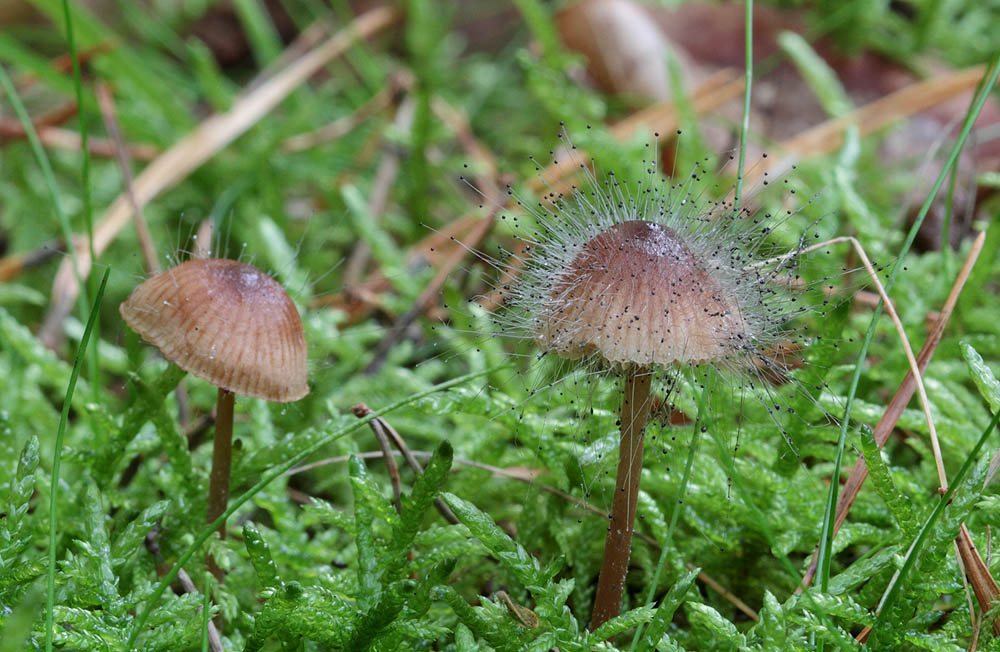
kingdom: Fungi
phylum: Mucoromycota
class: Mucoromycetes
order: Mucorales
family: Phycomycetaceae
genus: Spinellus
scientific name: Spinellus fusiger
